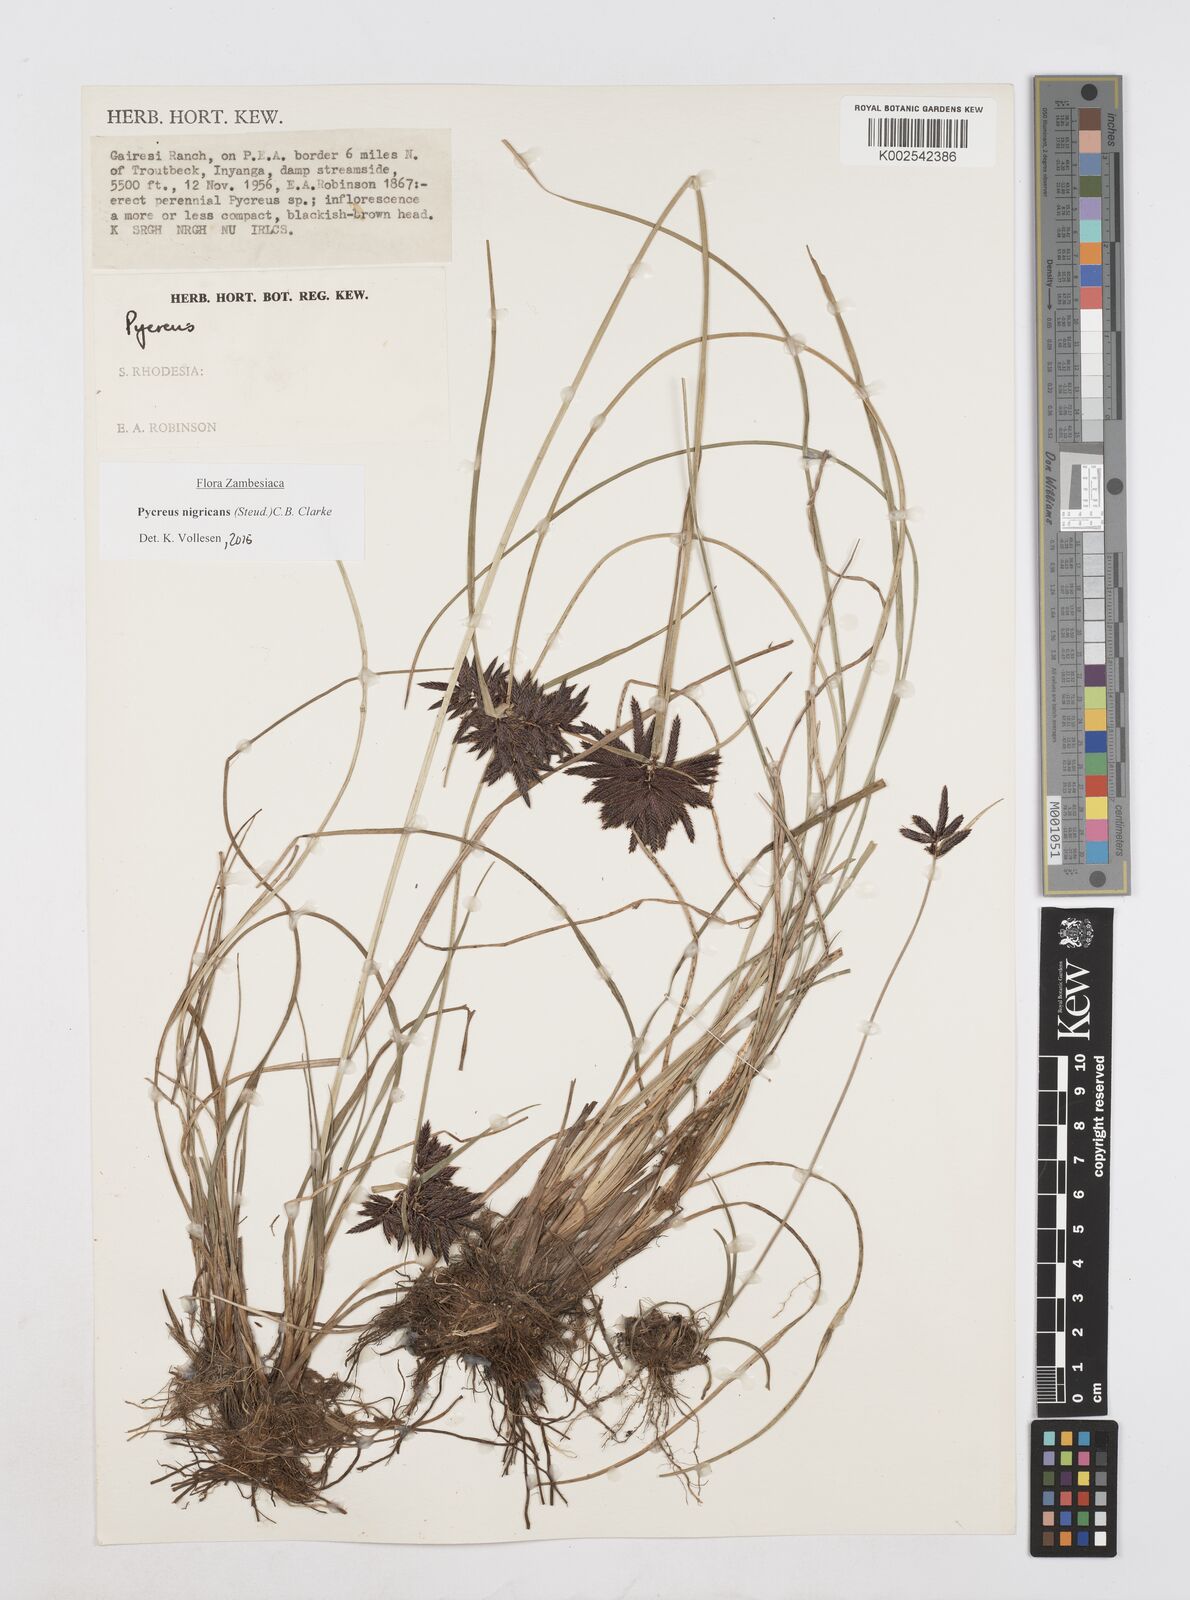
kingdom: Plantae
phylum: Tracheophyta
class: Liliopsida
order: Poales
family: Cyperaceae
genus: Cyperus
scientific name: Cyperus nigricans
